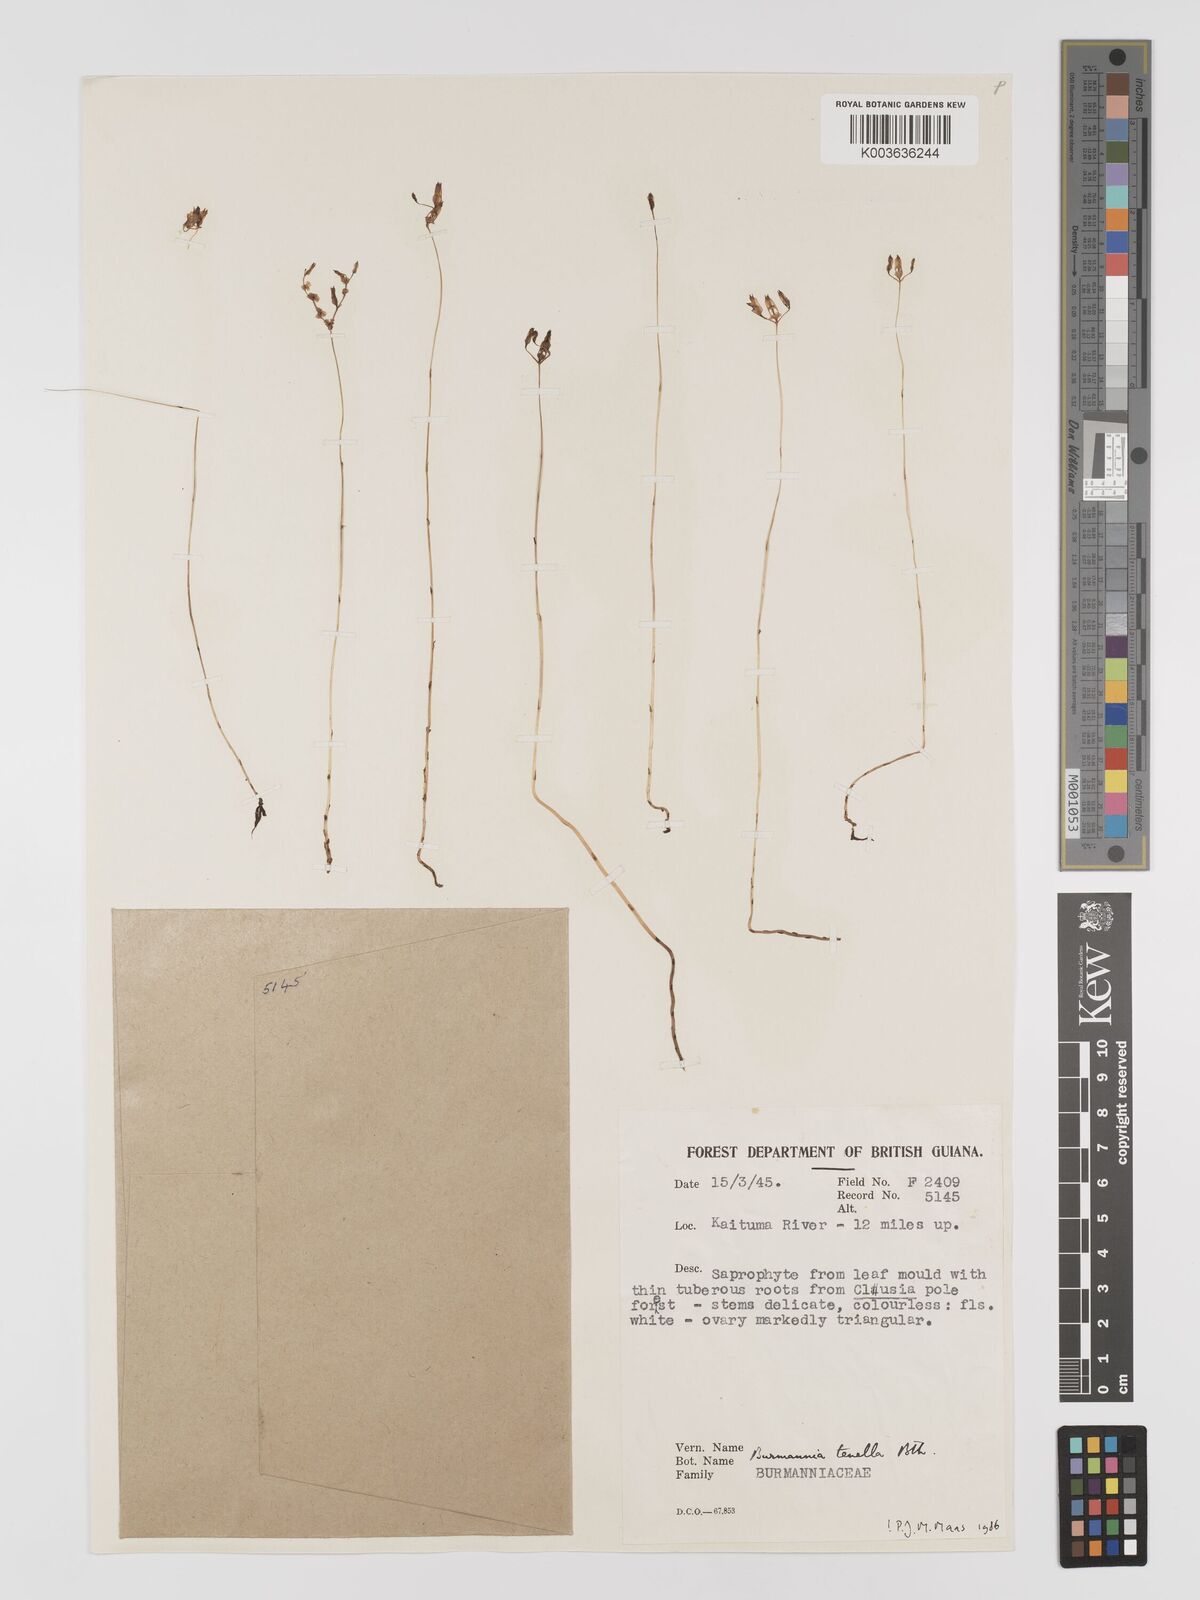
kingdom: Plantae
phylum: Tracheophyta
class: Liliopsida
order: Dioscoreales
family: Burmanniaceae
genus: Burmannia
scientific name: Burmannia tenella
